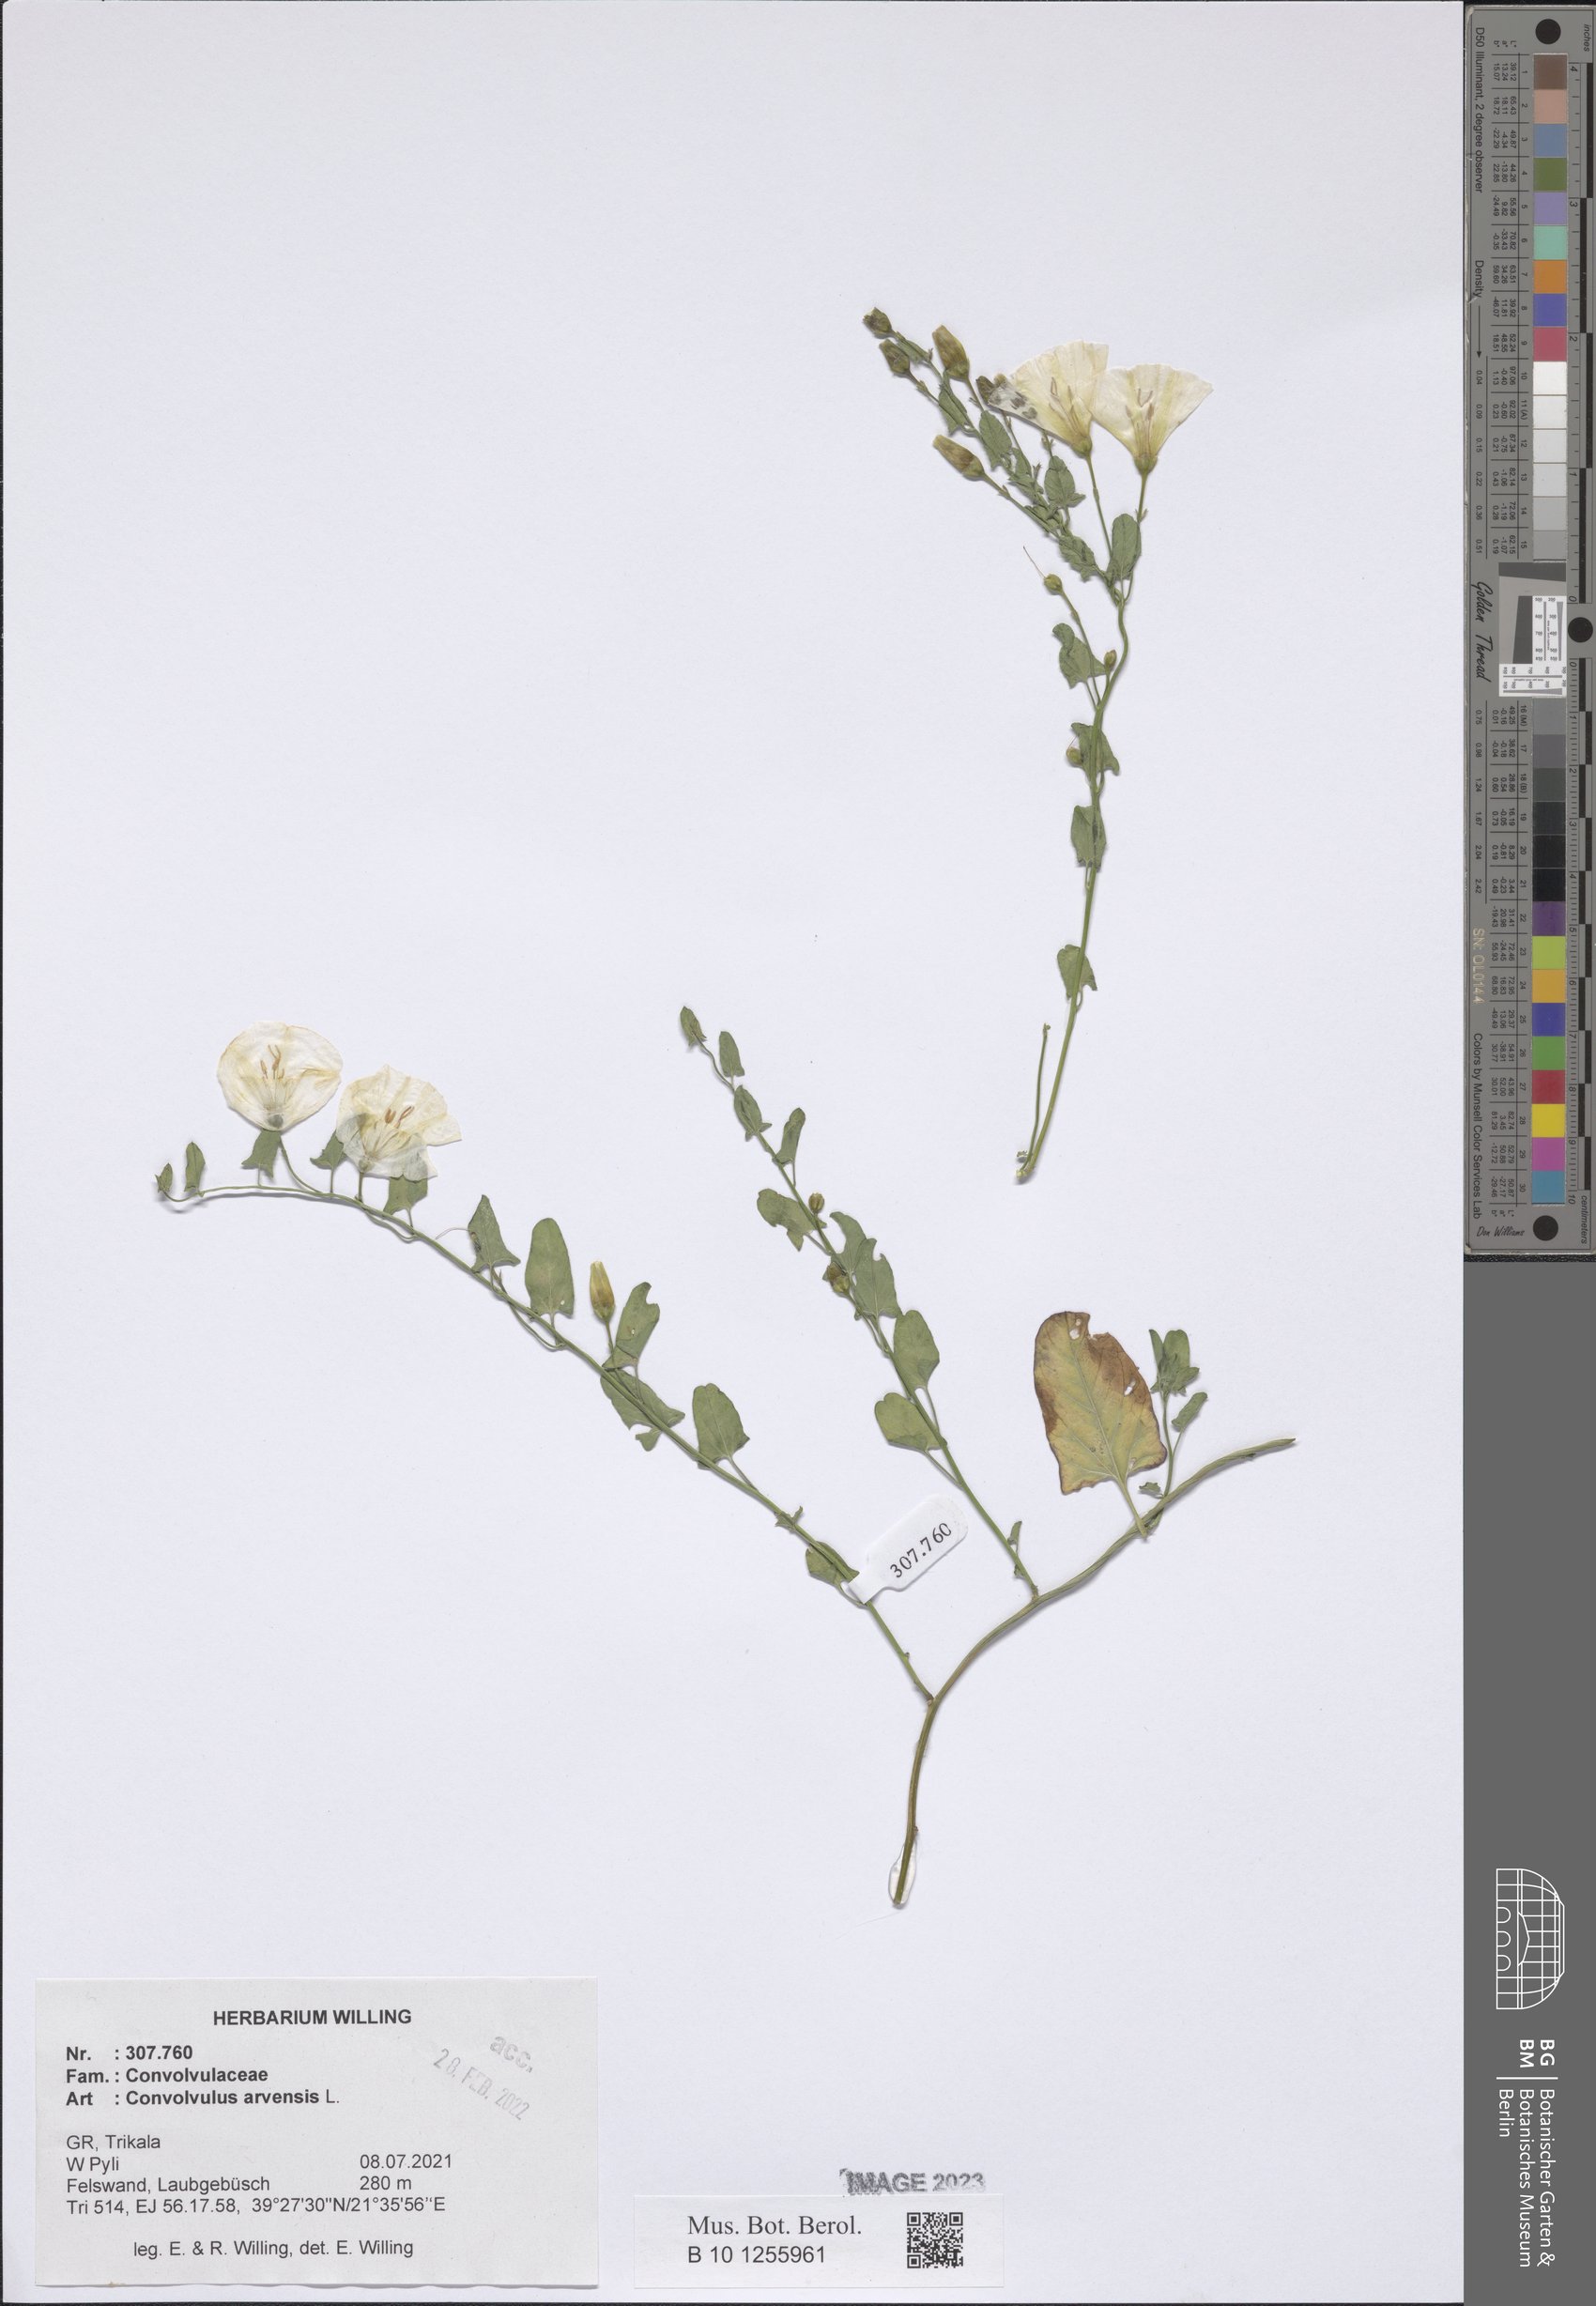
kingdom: Plantae
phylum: Tracheophyta
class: Magnoliopsida
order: Solanales
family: Convolvulaceae
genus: Convolvulus
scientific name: Convolvulus arvensis
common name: Field bindweed
